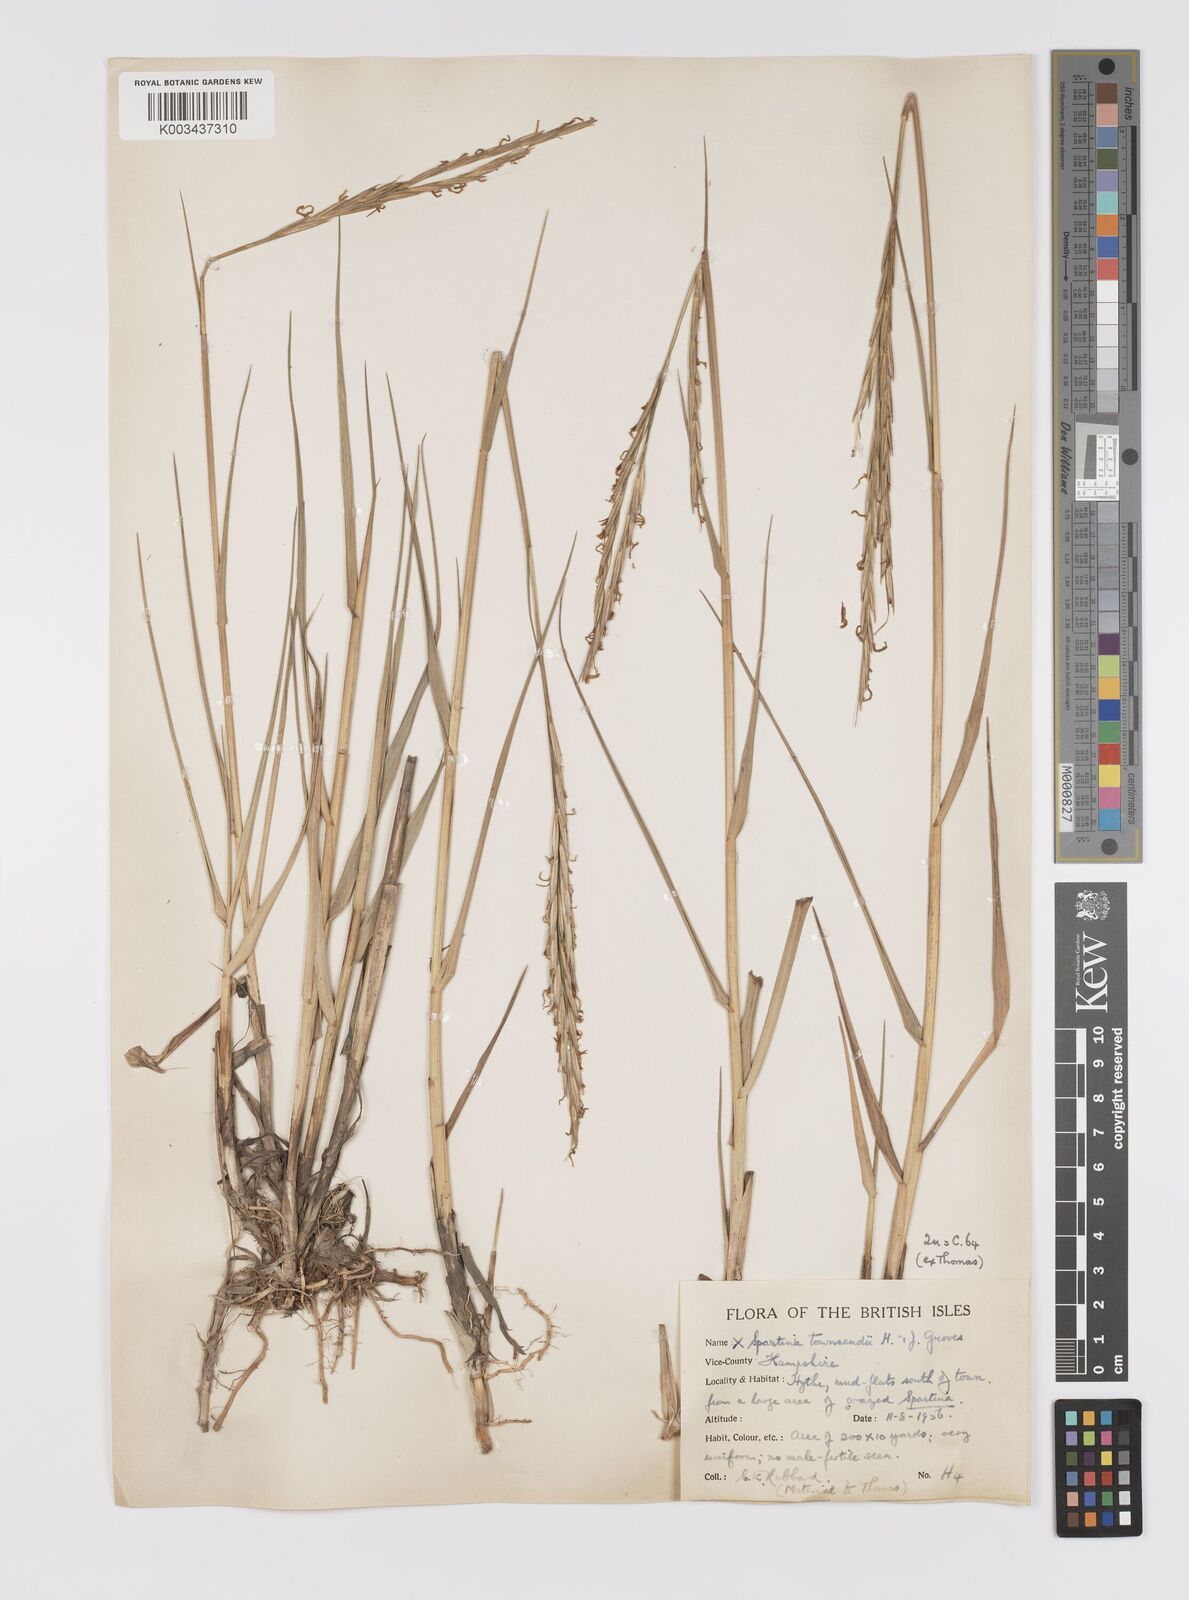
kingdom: Plantae
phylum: Tracheophyta
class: Liliopsida
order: Poales
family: Poaceae
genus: Sporobolus
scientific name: Sporobolus townsendii
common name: Townsend's cordgrass
